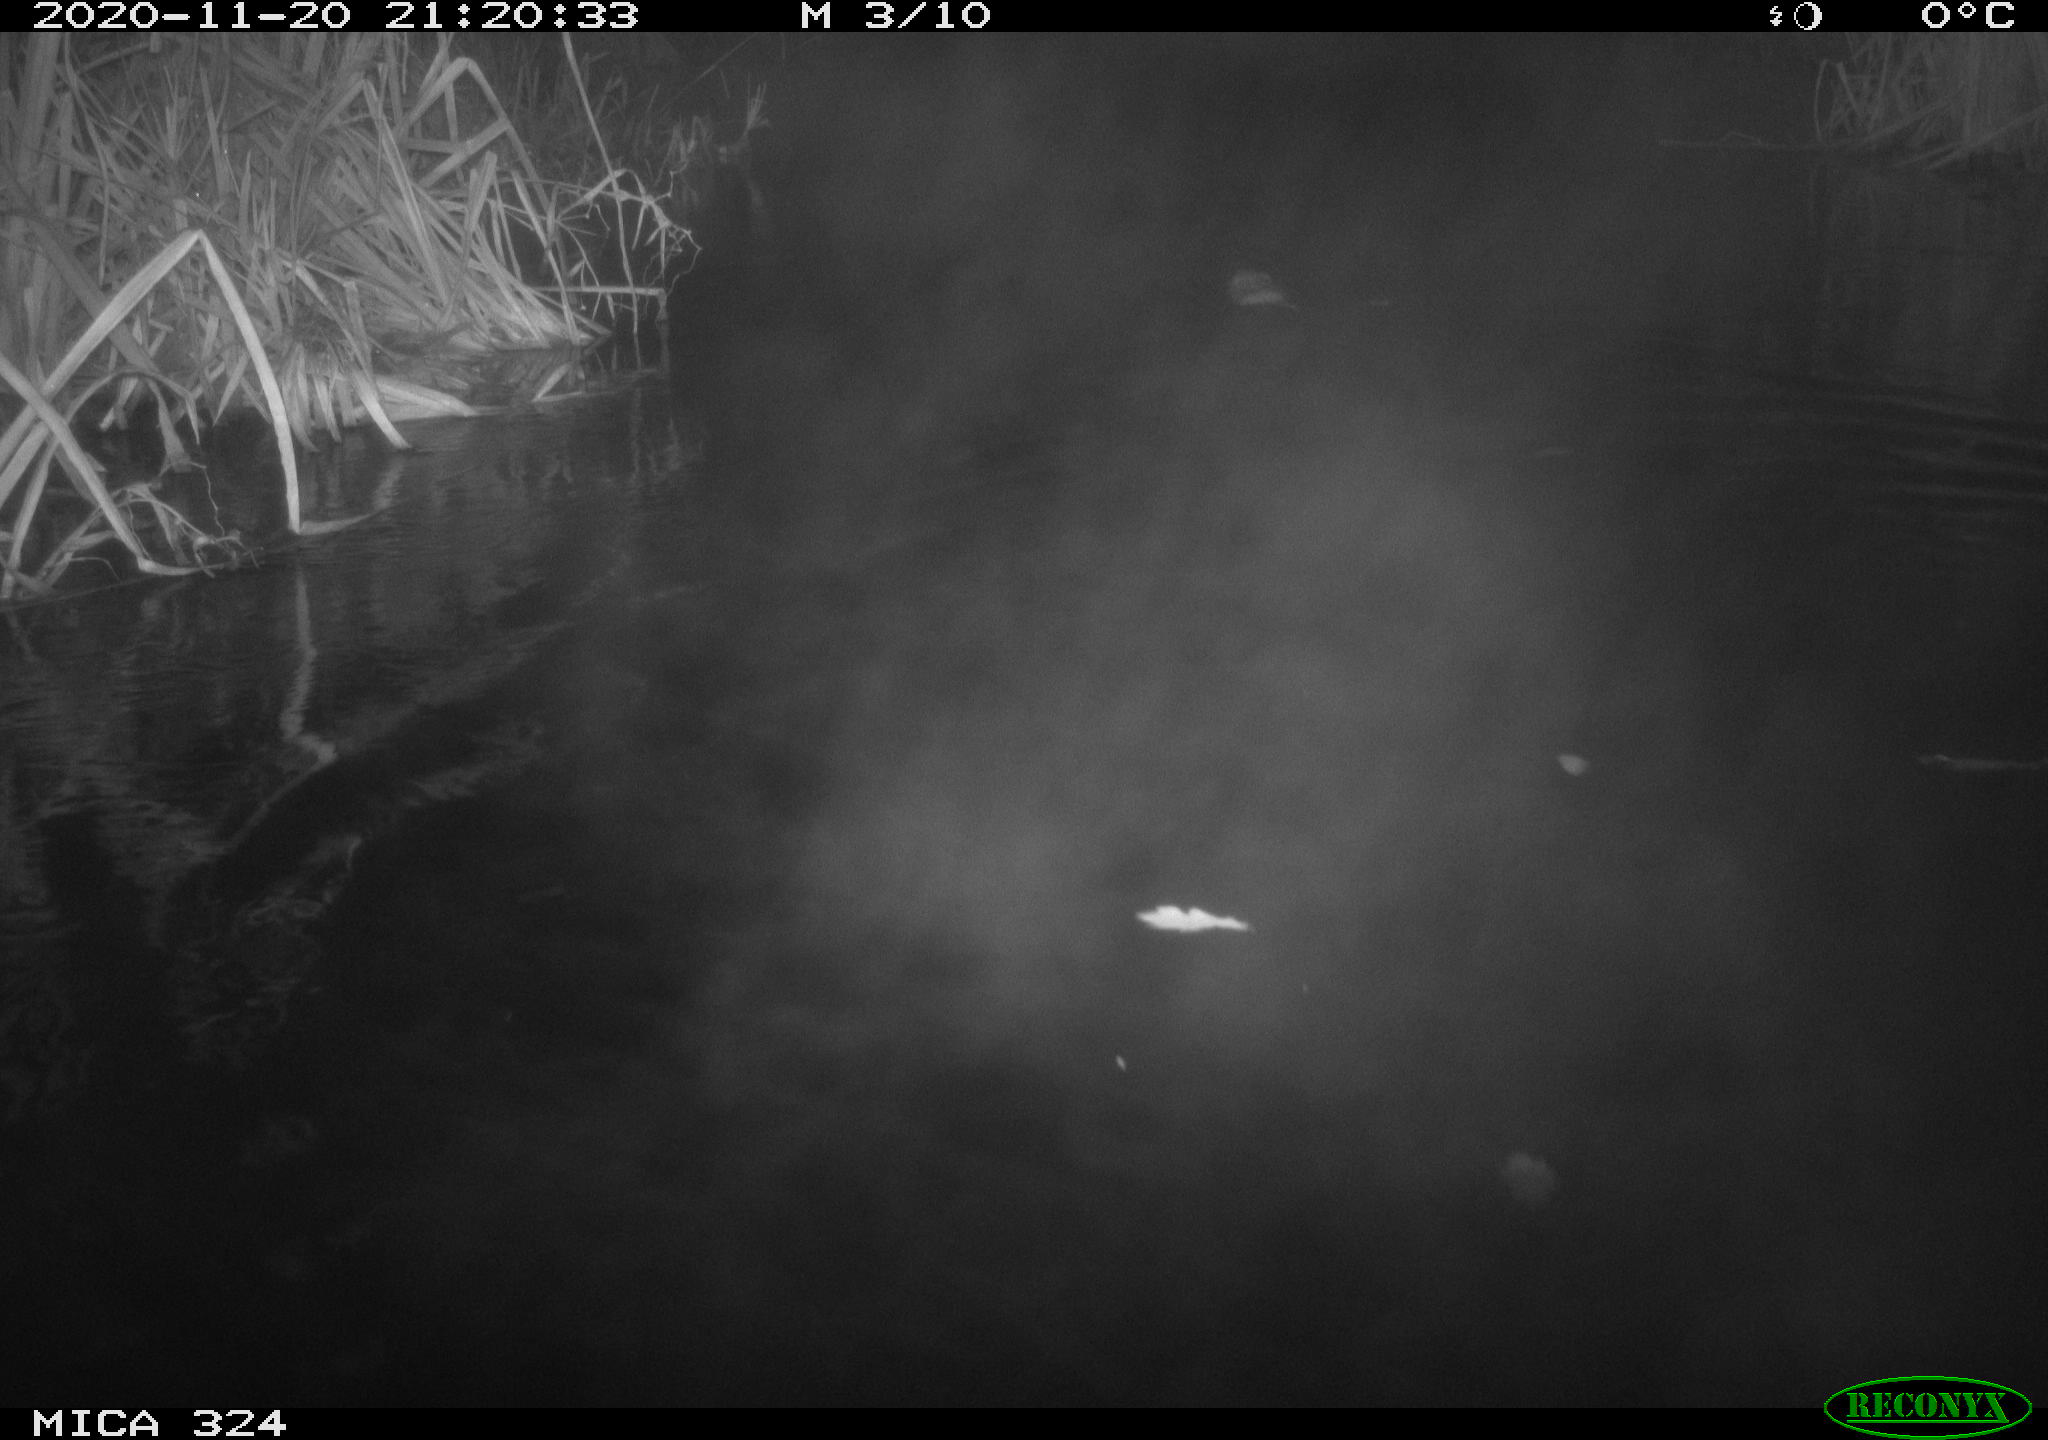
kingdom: Animalia
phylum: Chordata
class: Mammalia
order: Rodentia
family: Cricetidae
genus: Ondatra
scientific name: Ondatra zibethicus
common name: Muskrat
